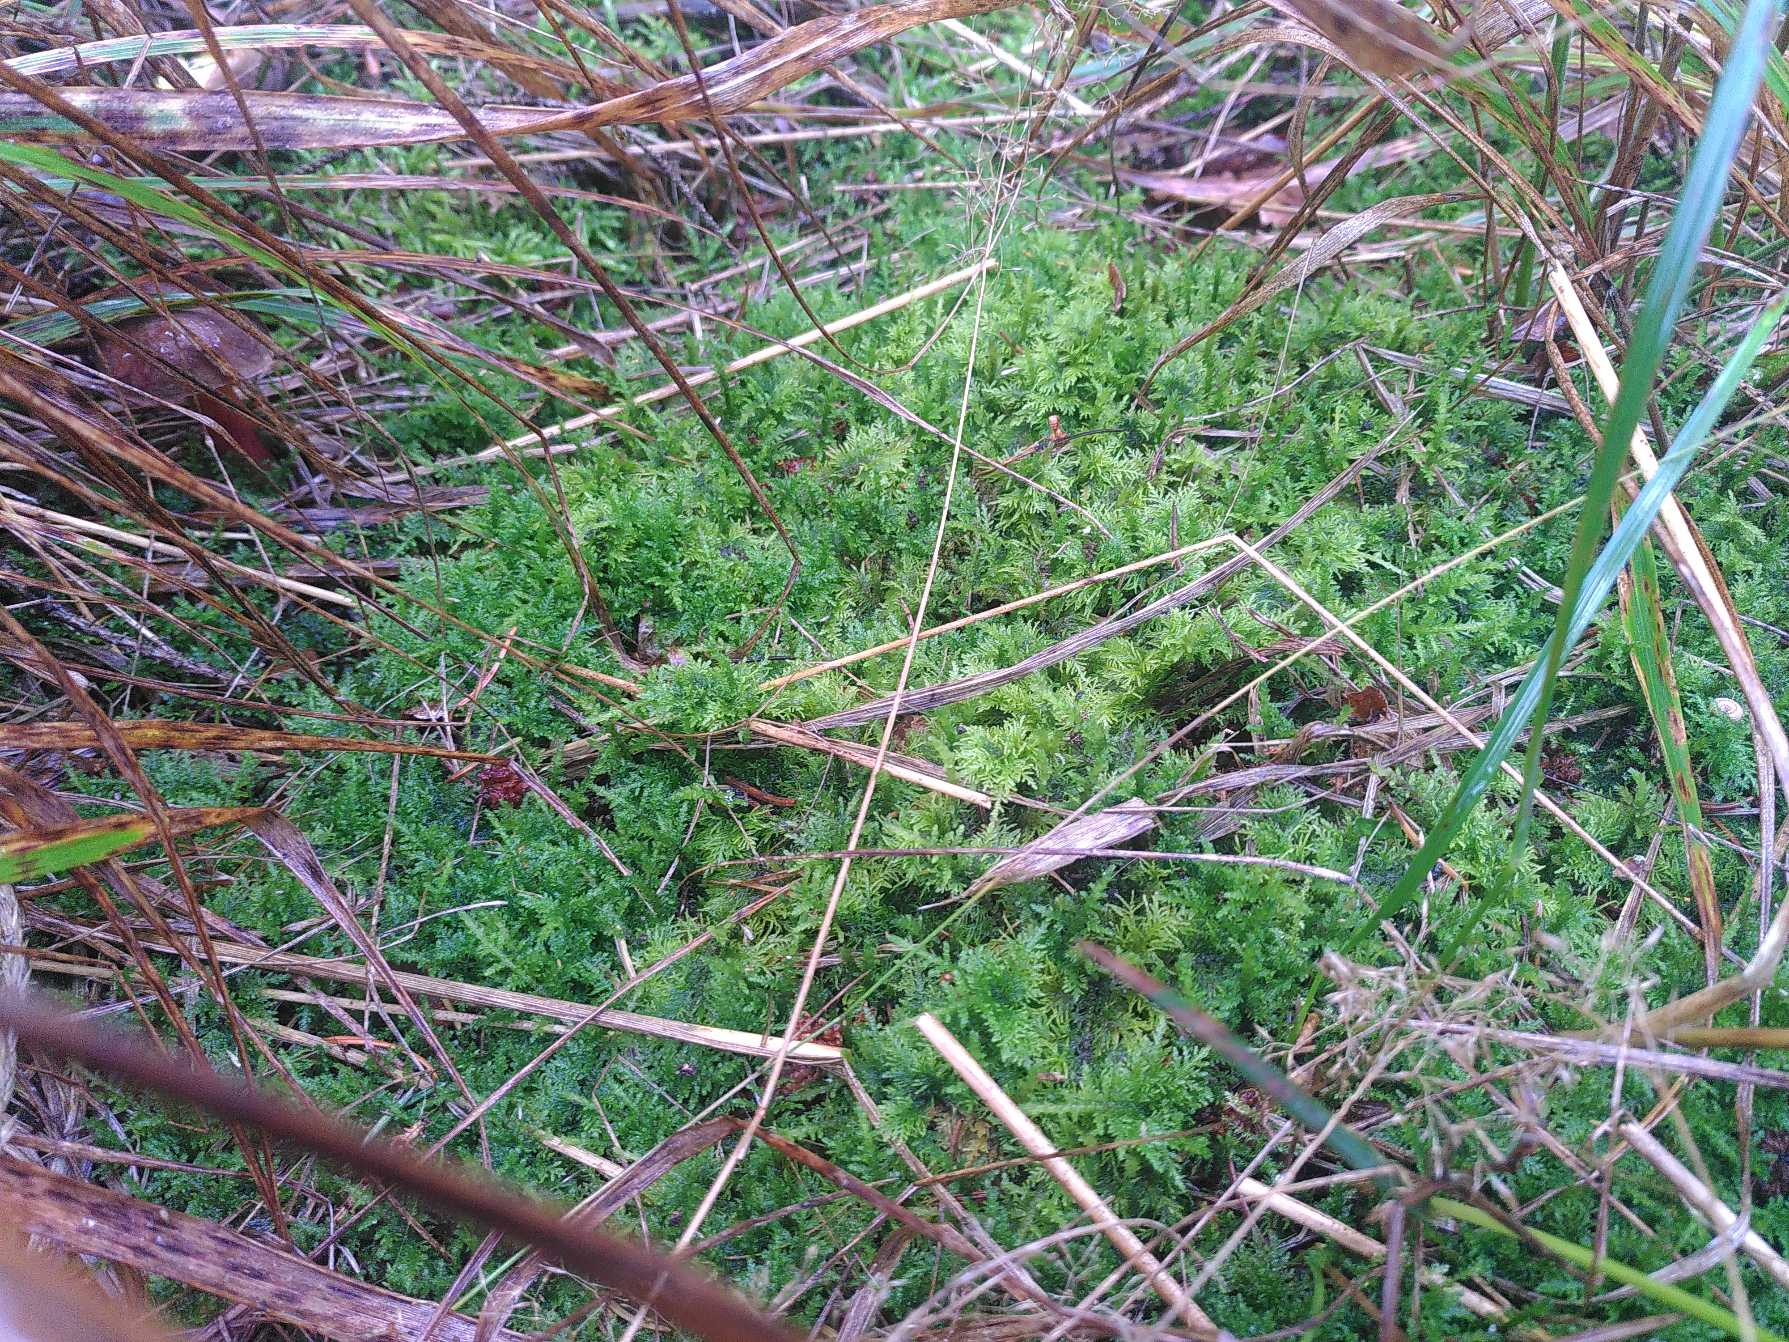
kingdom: Plantae
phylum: Bryophyta
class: Bryopsida
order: Hypnales
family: Thuidiaceae
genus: Thuidium
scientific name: Thuidium tamariscinum
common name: Pryd-bregnemos
